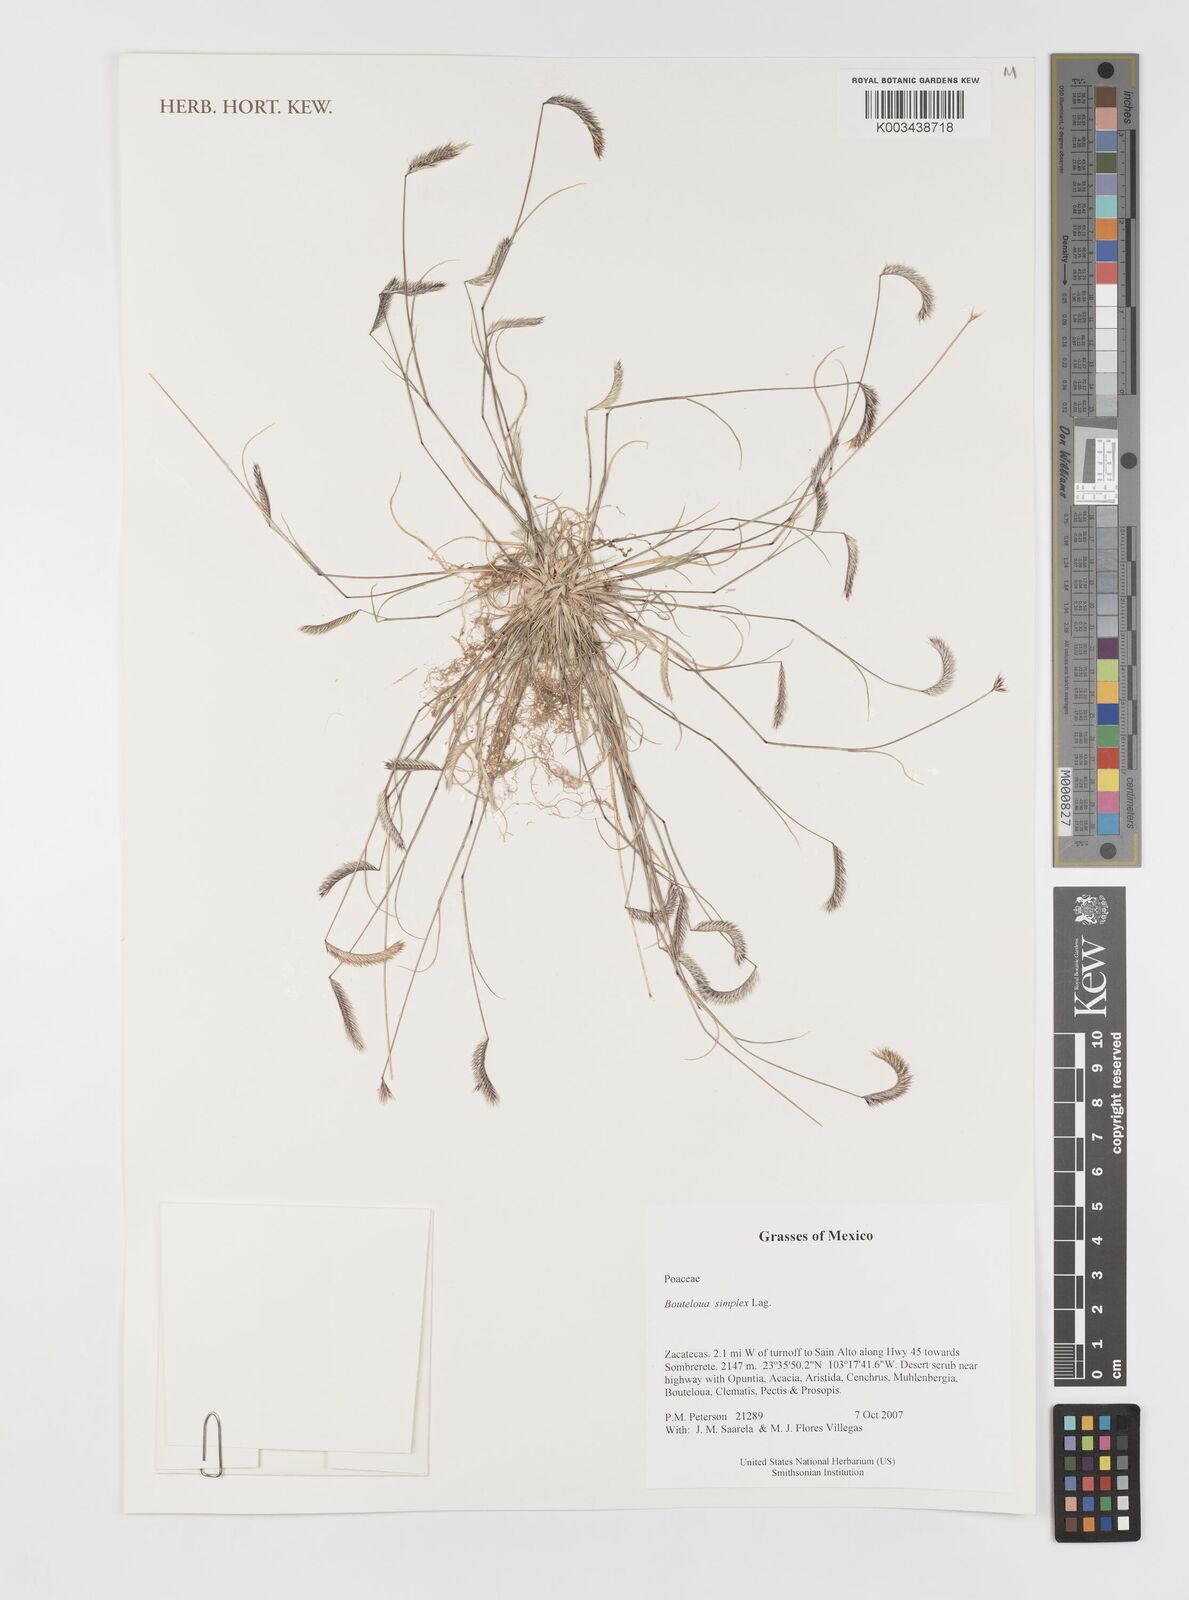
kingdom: Plantae
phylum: Tracheophyta
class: Liliopsida
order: Poales
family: Poaceae
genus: Bouteloua
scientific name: Bouteloua simplex
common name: Mat grama
